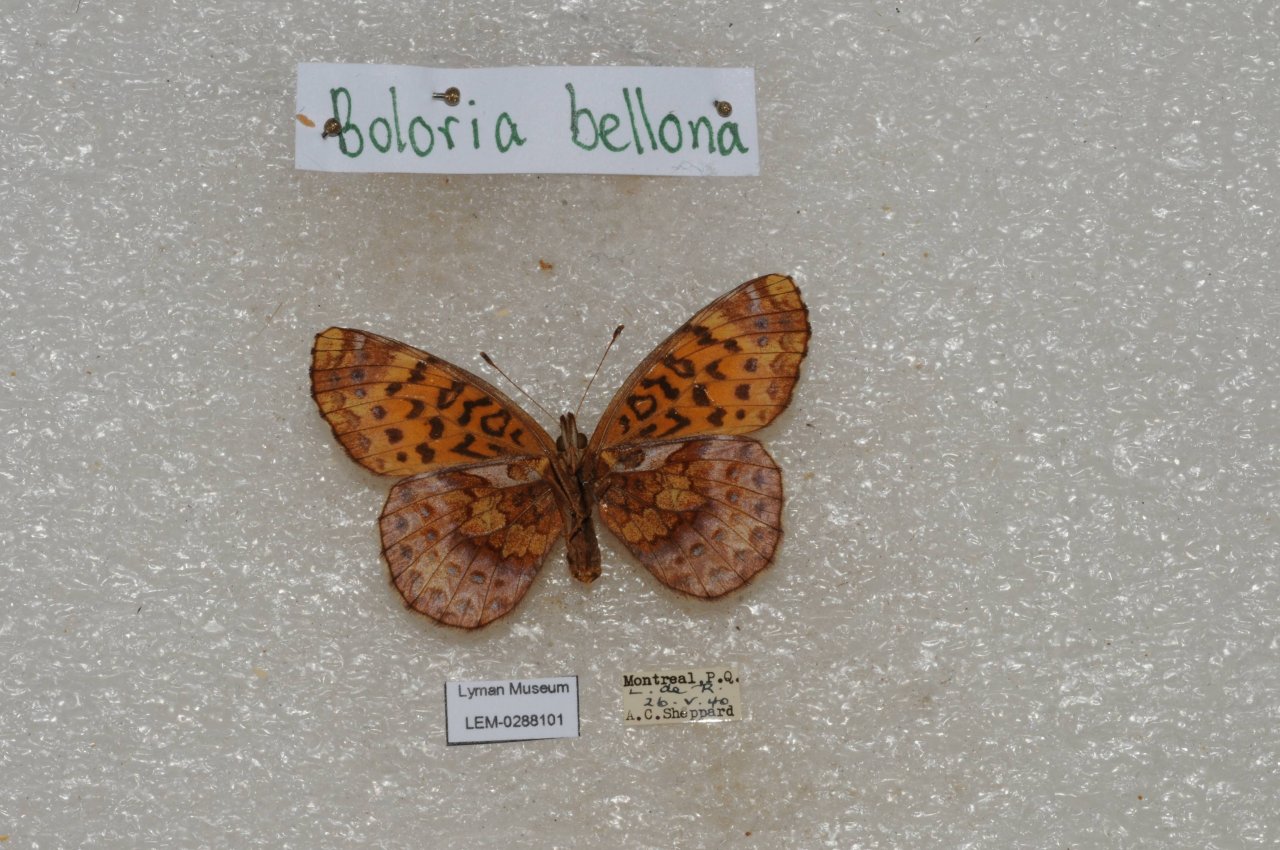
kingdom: Animalia
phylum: Arthropoda
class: Insecta
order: Lepidoptera
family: Nymphalidae
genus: Clossiana
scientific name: Clossiana toddi
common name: Meadow Fritillary
